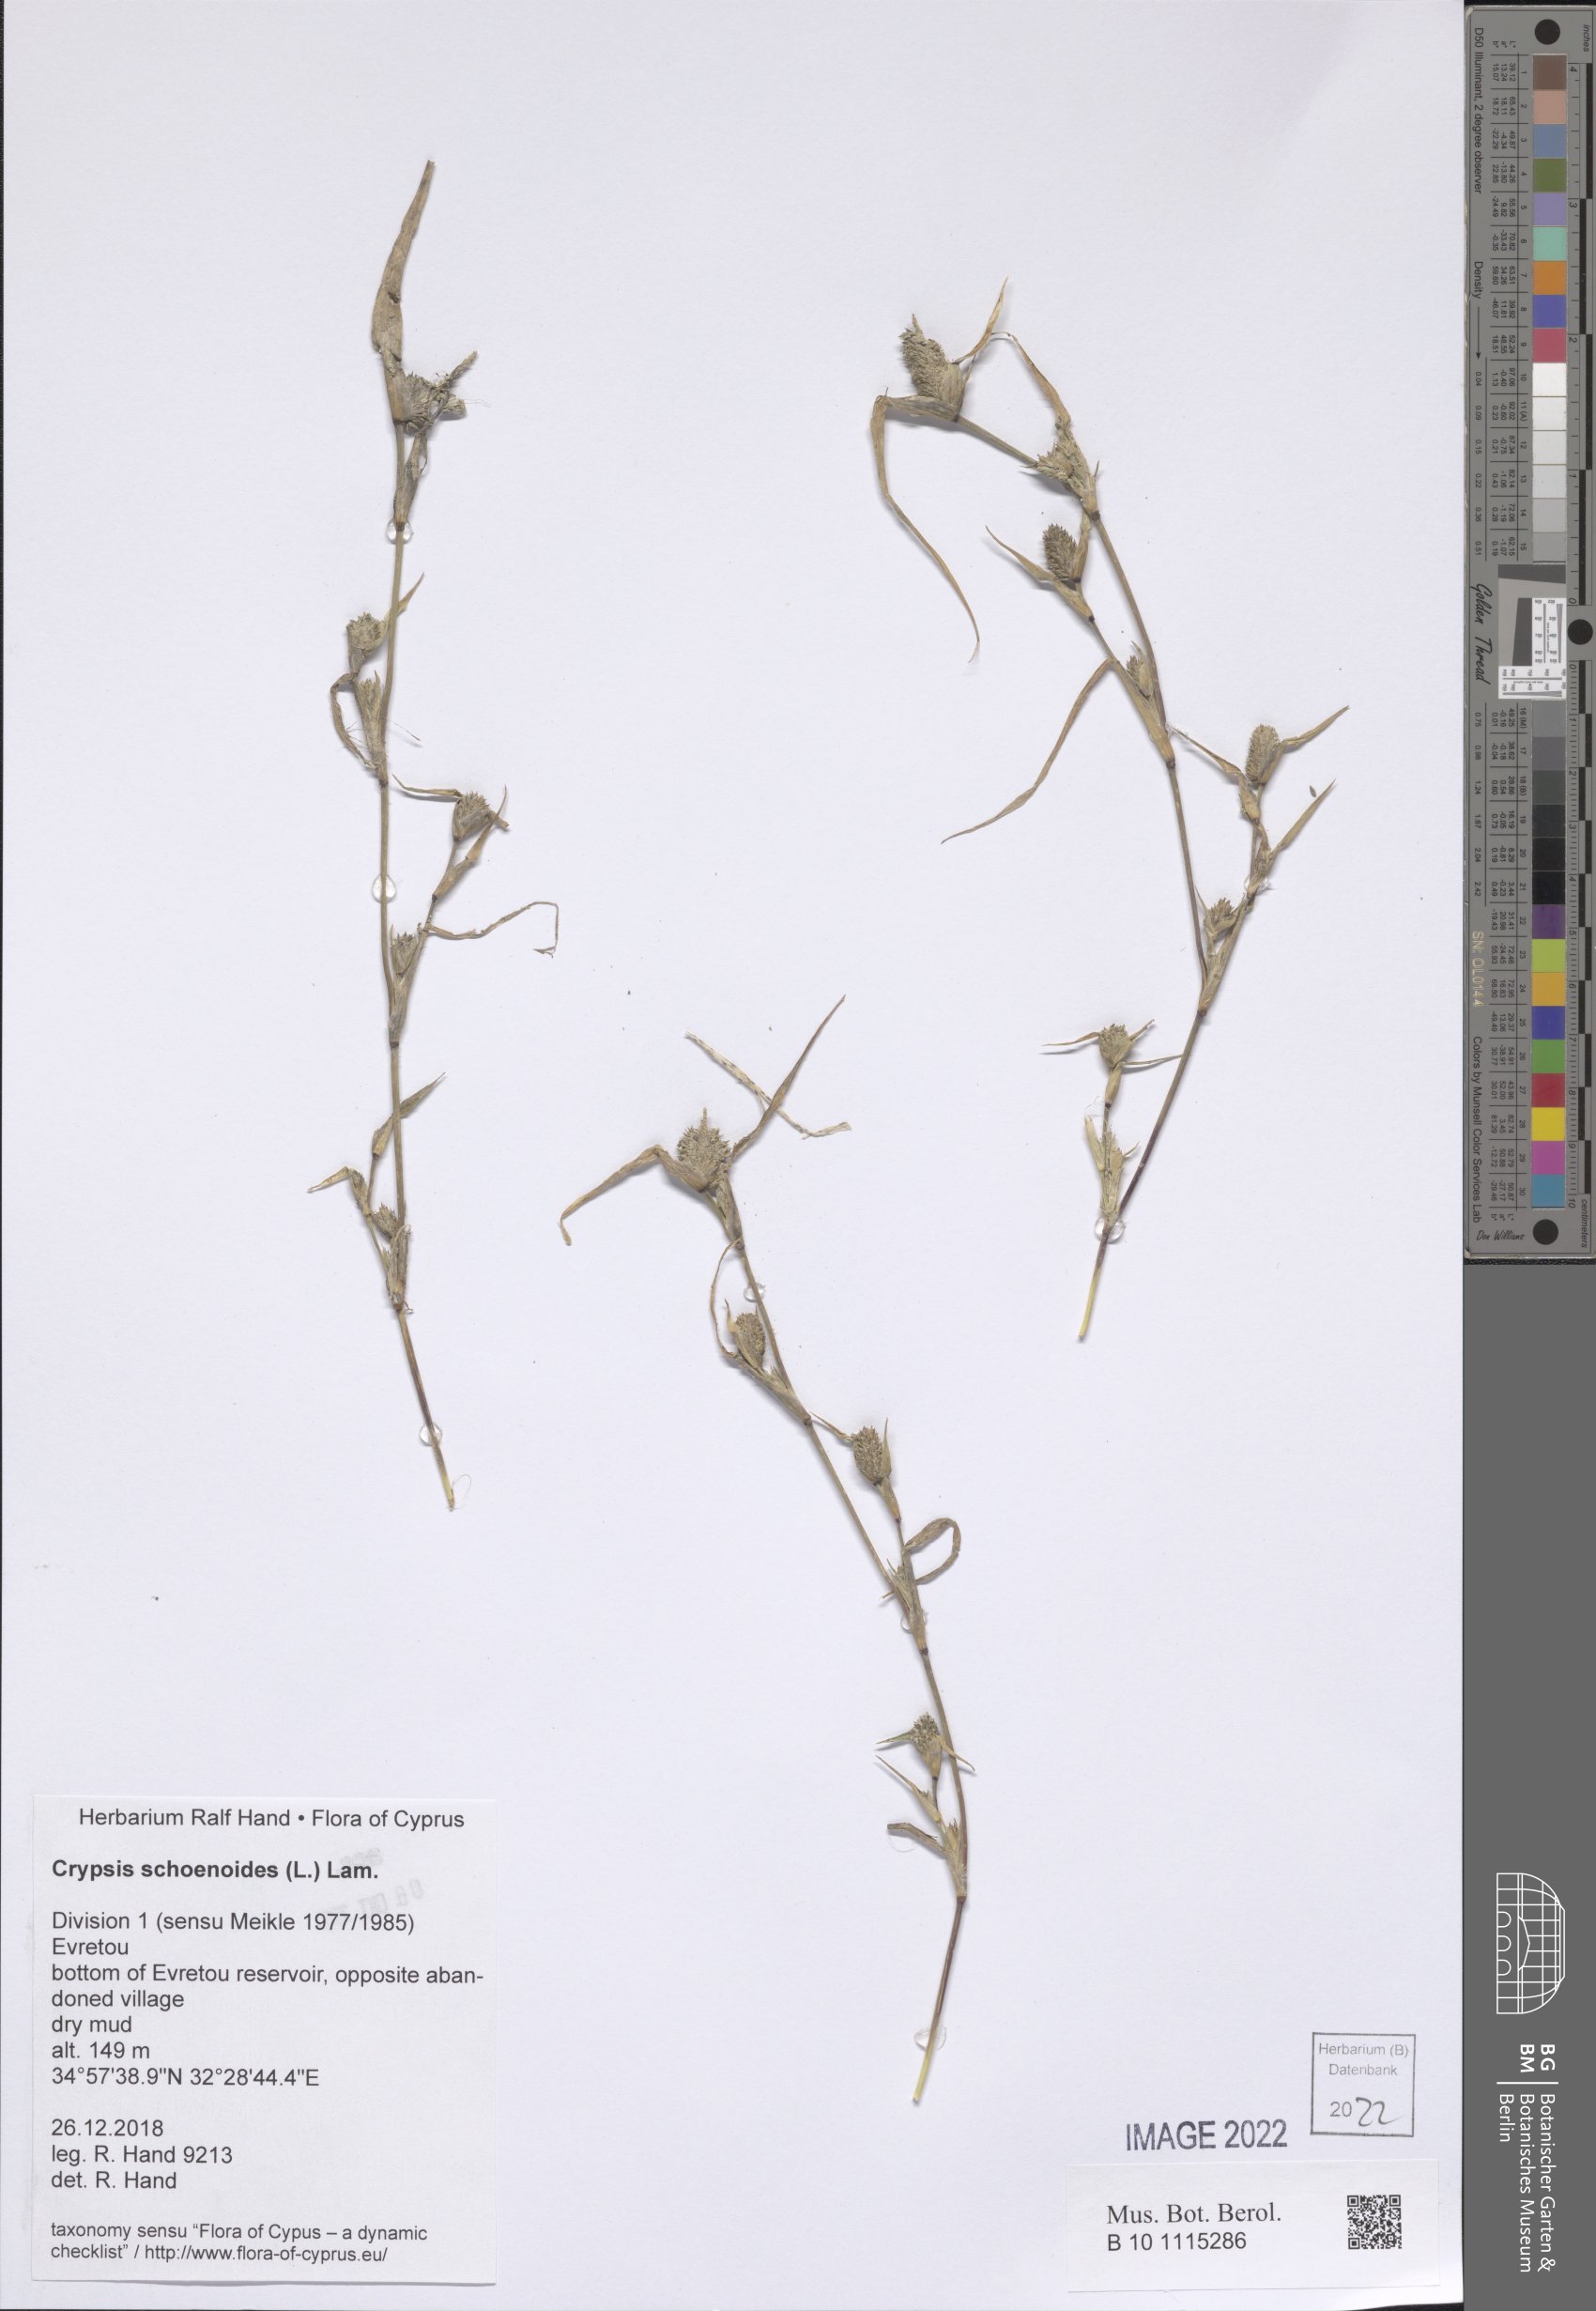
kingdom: Plantae
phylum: Tracheophyta
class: Liliopsida
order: Poales
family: Poaceae
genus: Sporobolus
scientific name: Sporobolus schoenoides
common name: Rush-like timothy
